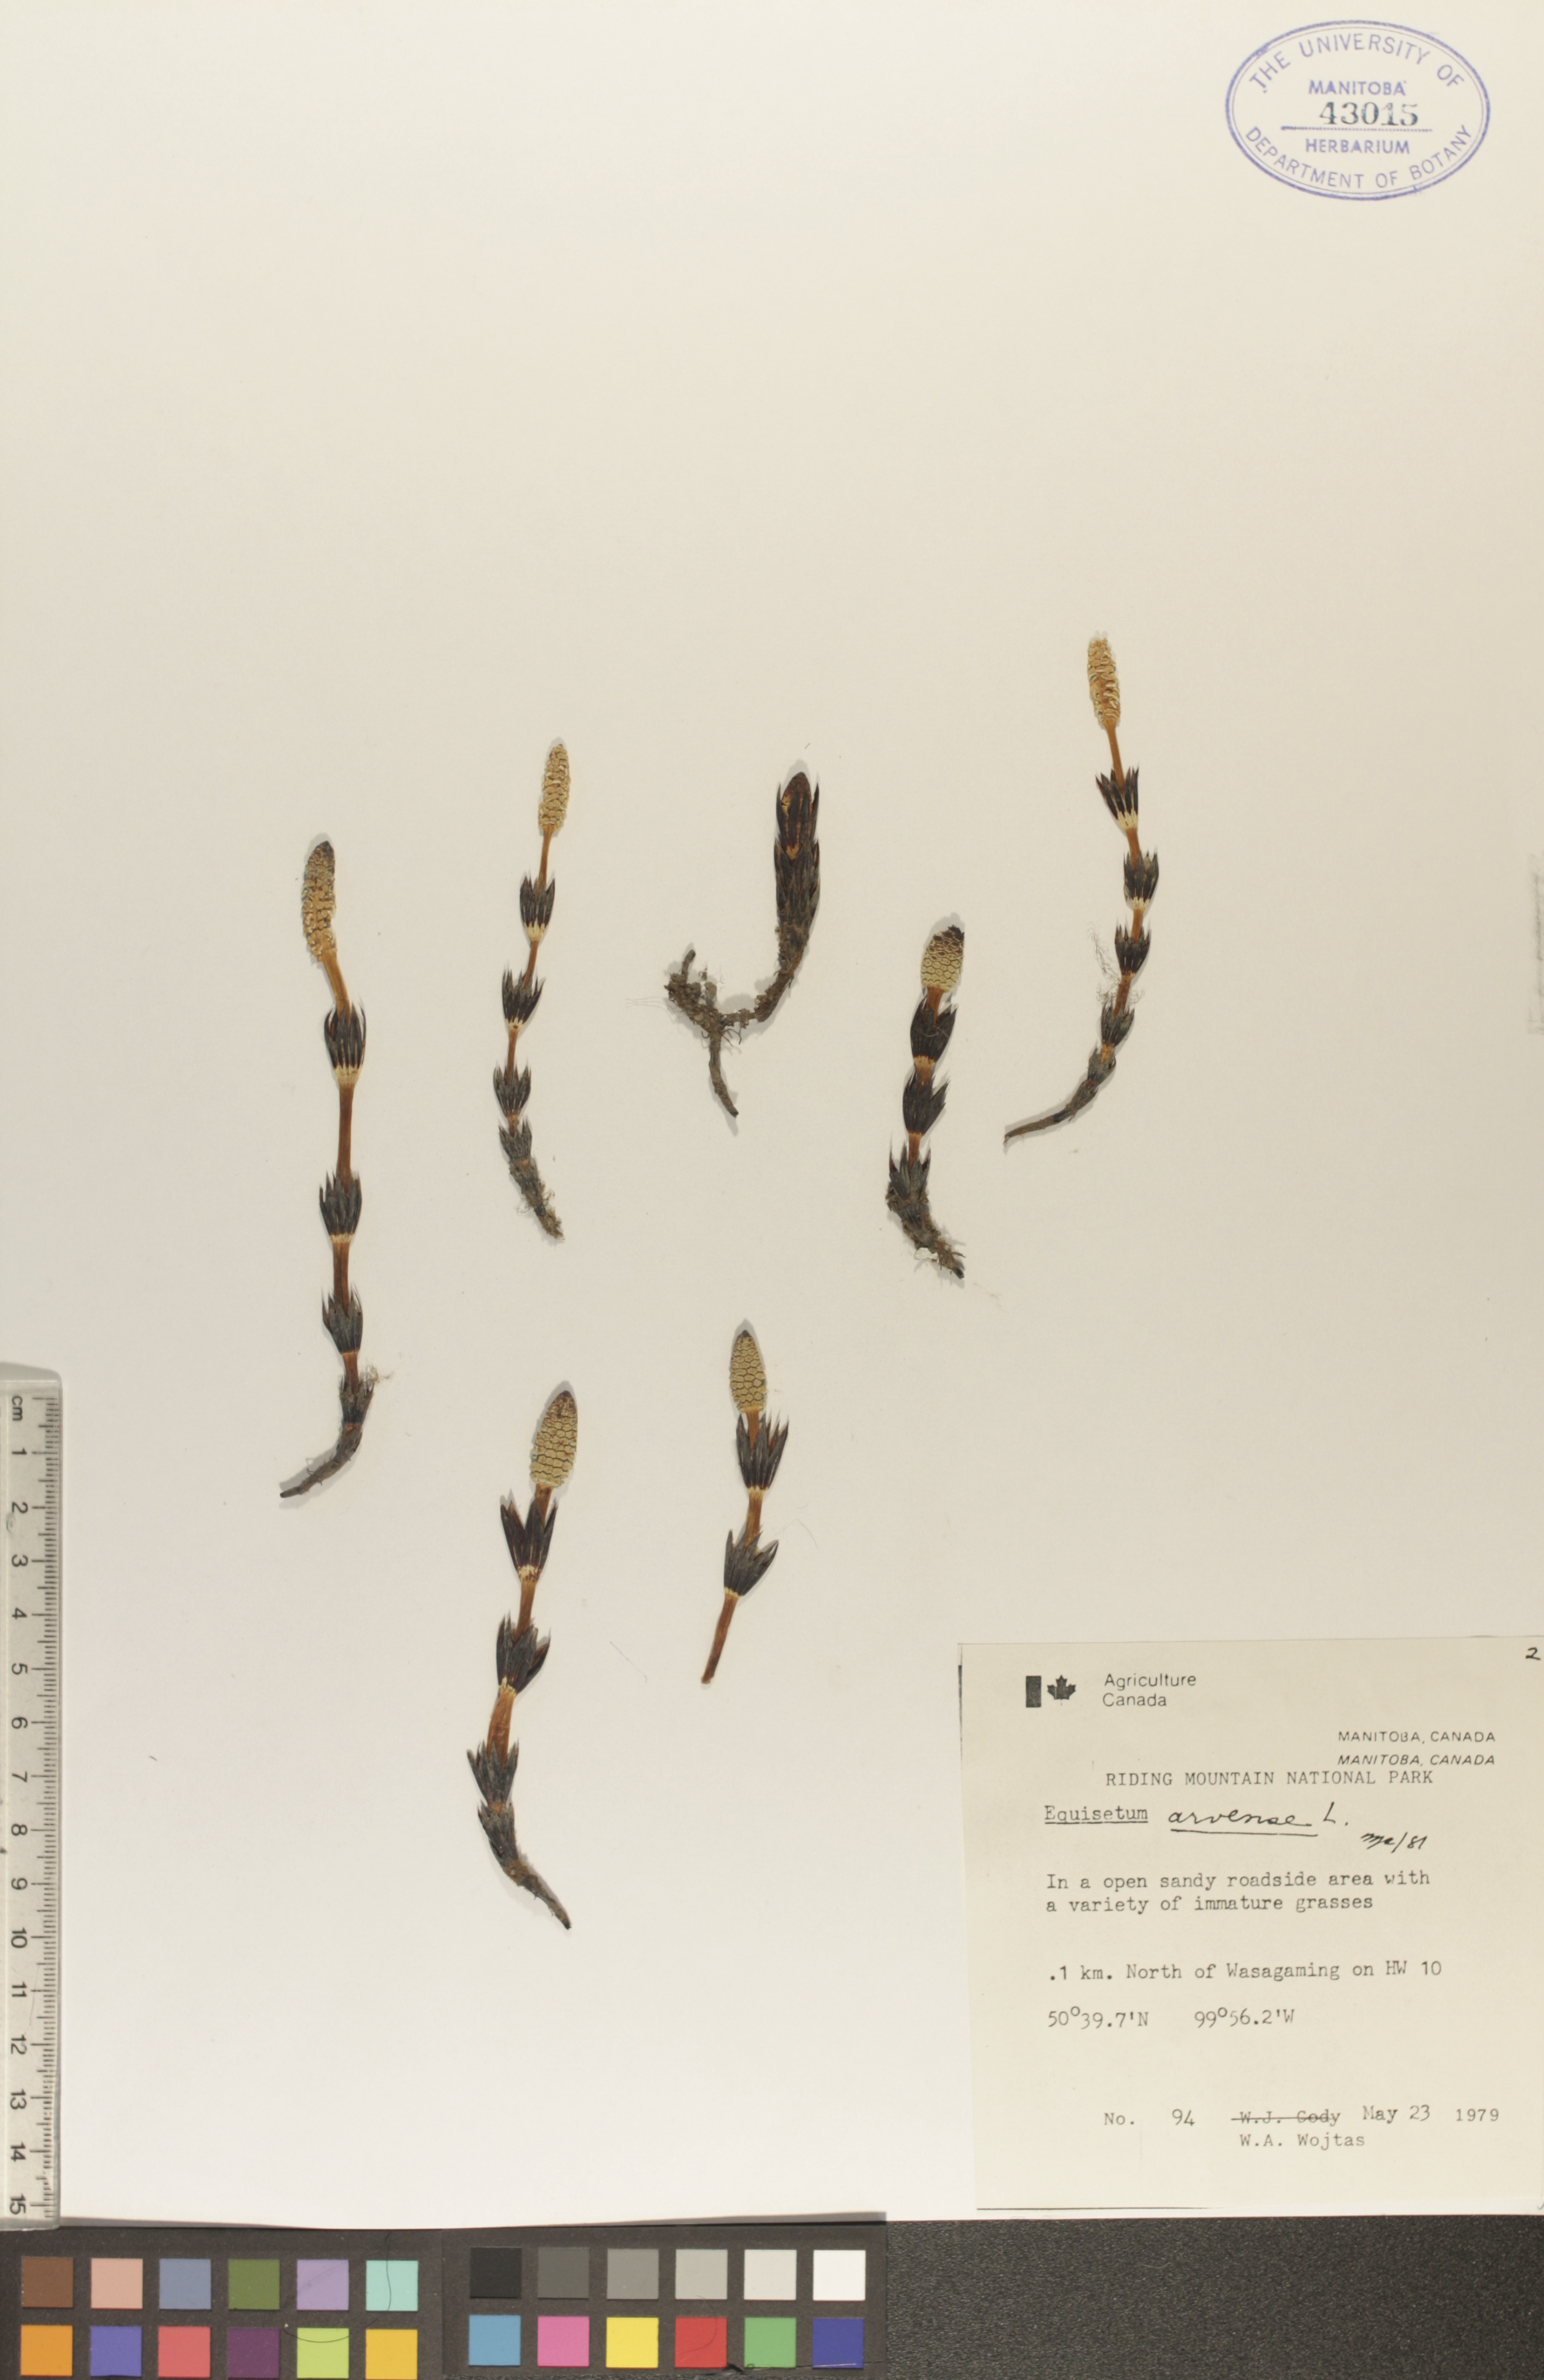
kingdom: Plantae
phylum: Tracheophyta
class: Polypodiopsida
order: Equisetales
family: Equisetaceae
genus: Equisetum
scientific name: Equisetum arvense
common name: Field horsetail
